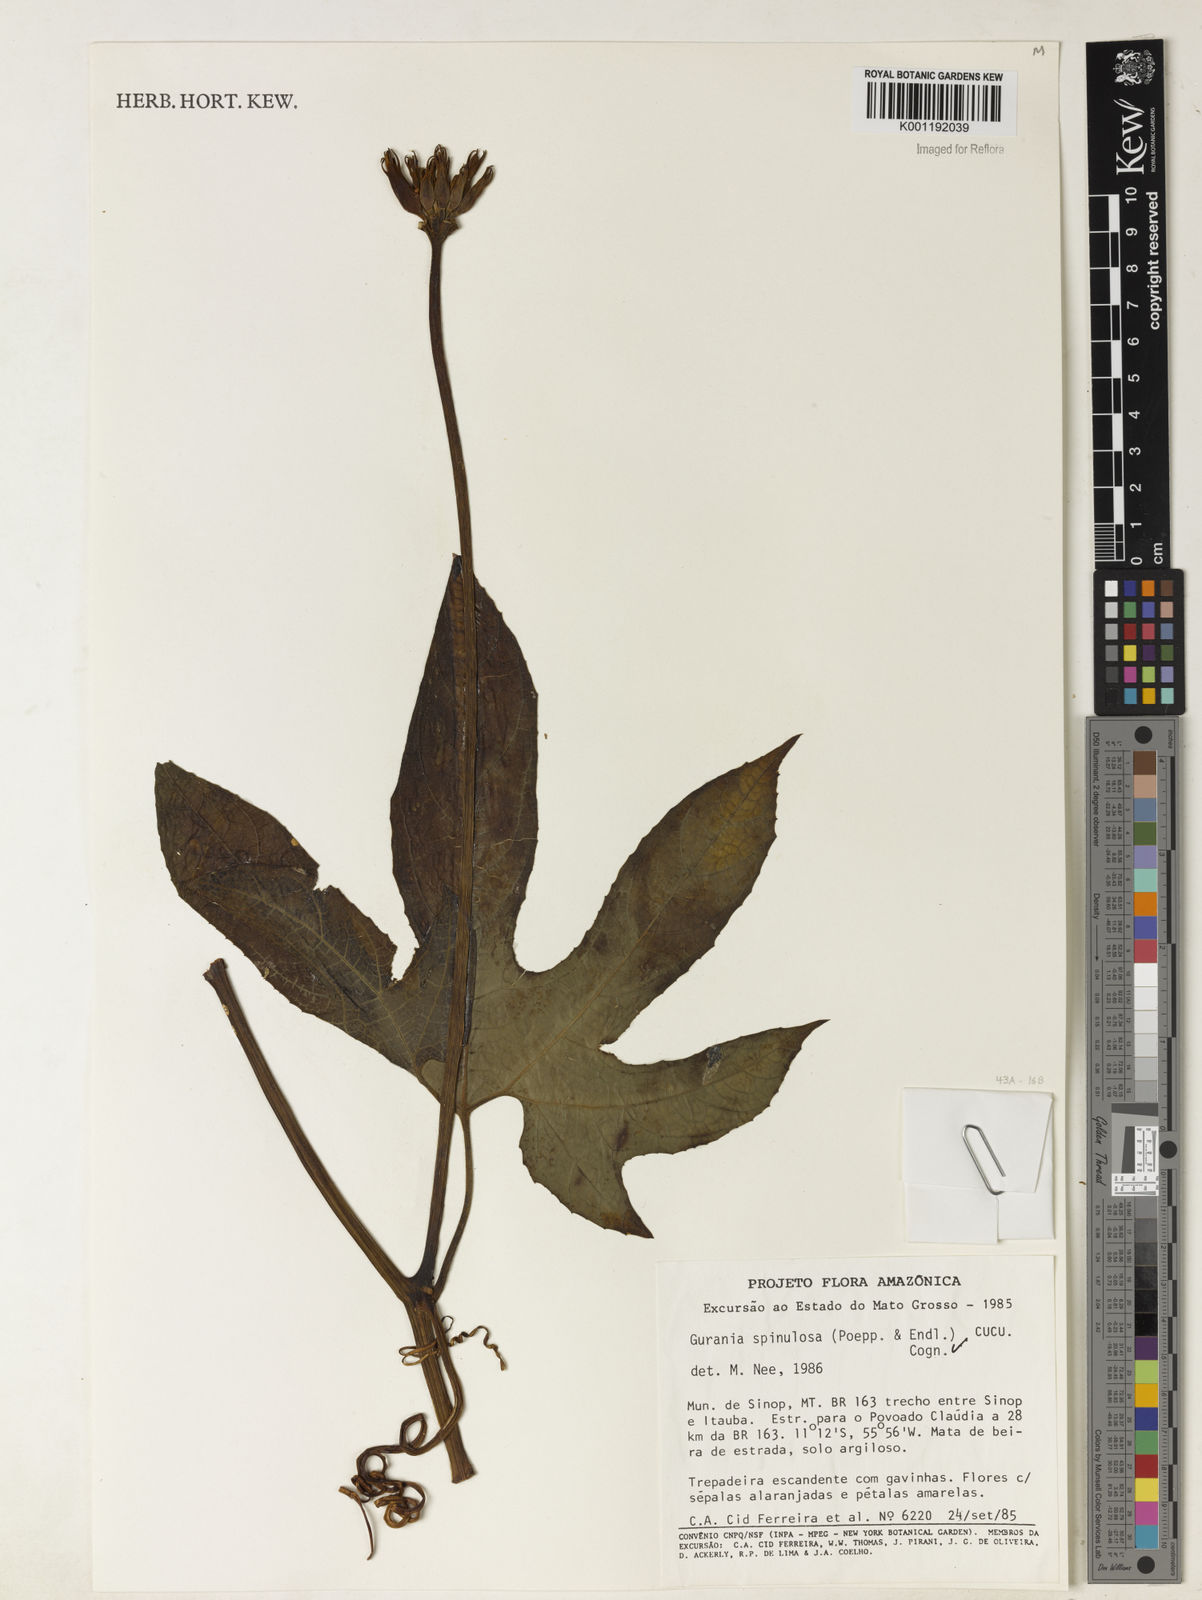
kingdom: Plantae
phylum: Tracheophyta
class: Magnoliopsida
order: Cucurbitales
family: Cucurbitaceae
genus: Gurania
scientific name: Gurania lobata
